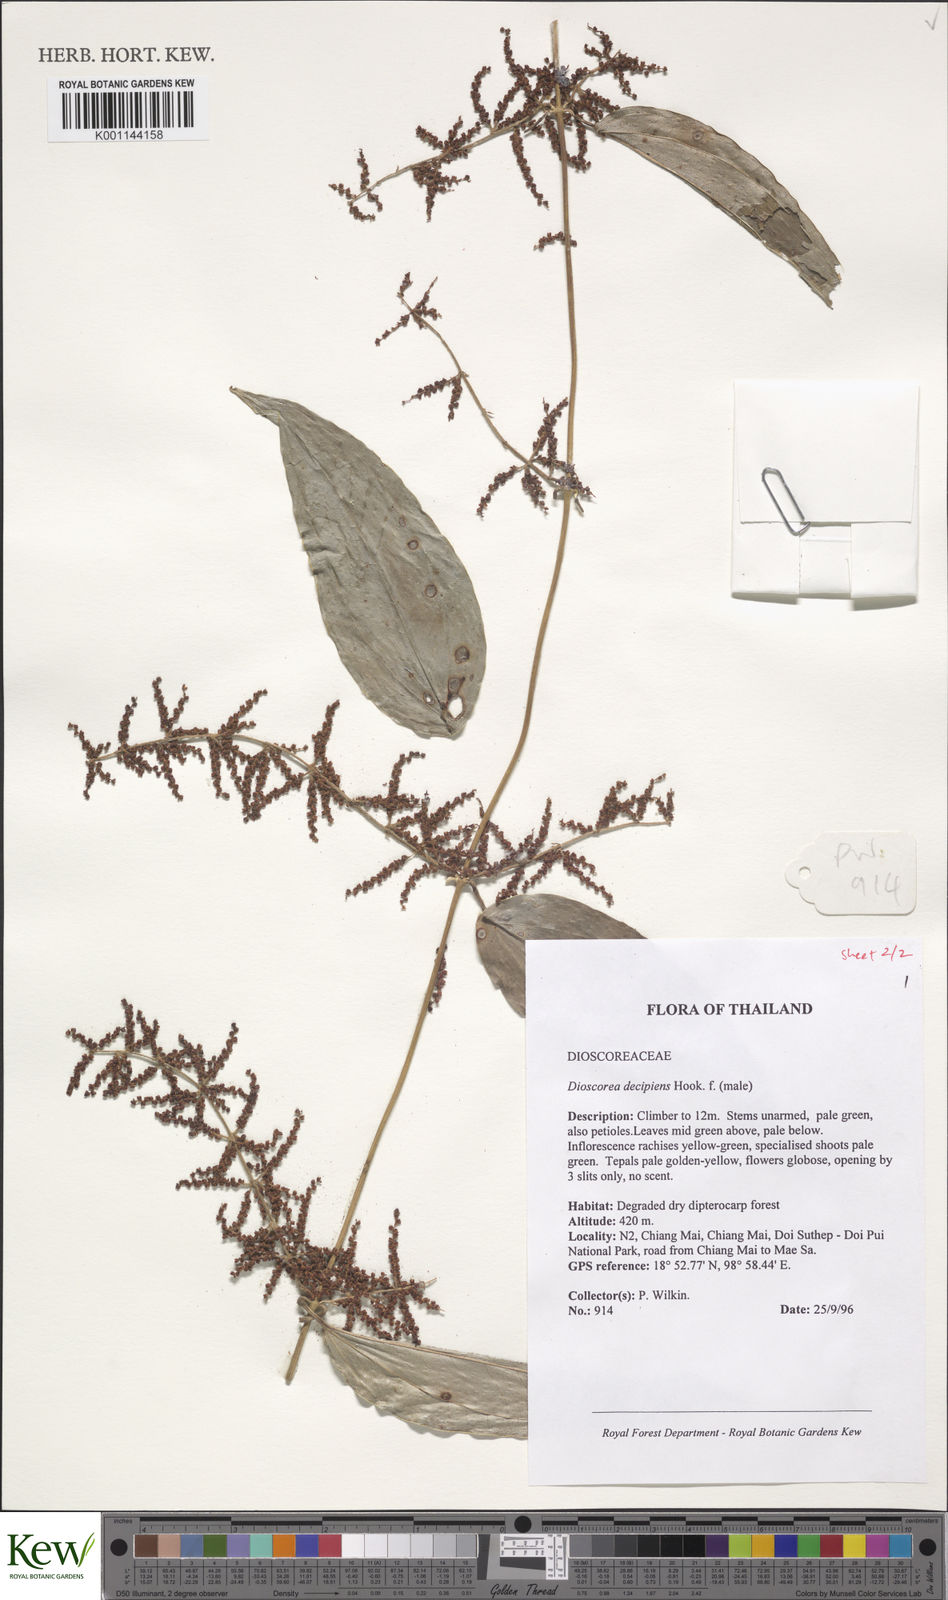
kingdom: Plantae
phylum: Tracheophyta
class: Liliopsida
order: Dioscoreales
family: Dioscoreaceae
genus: Dioscorea
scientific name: Dioscorea decipiens
